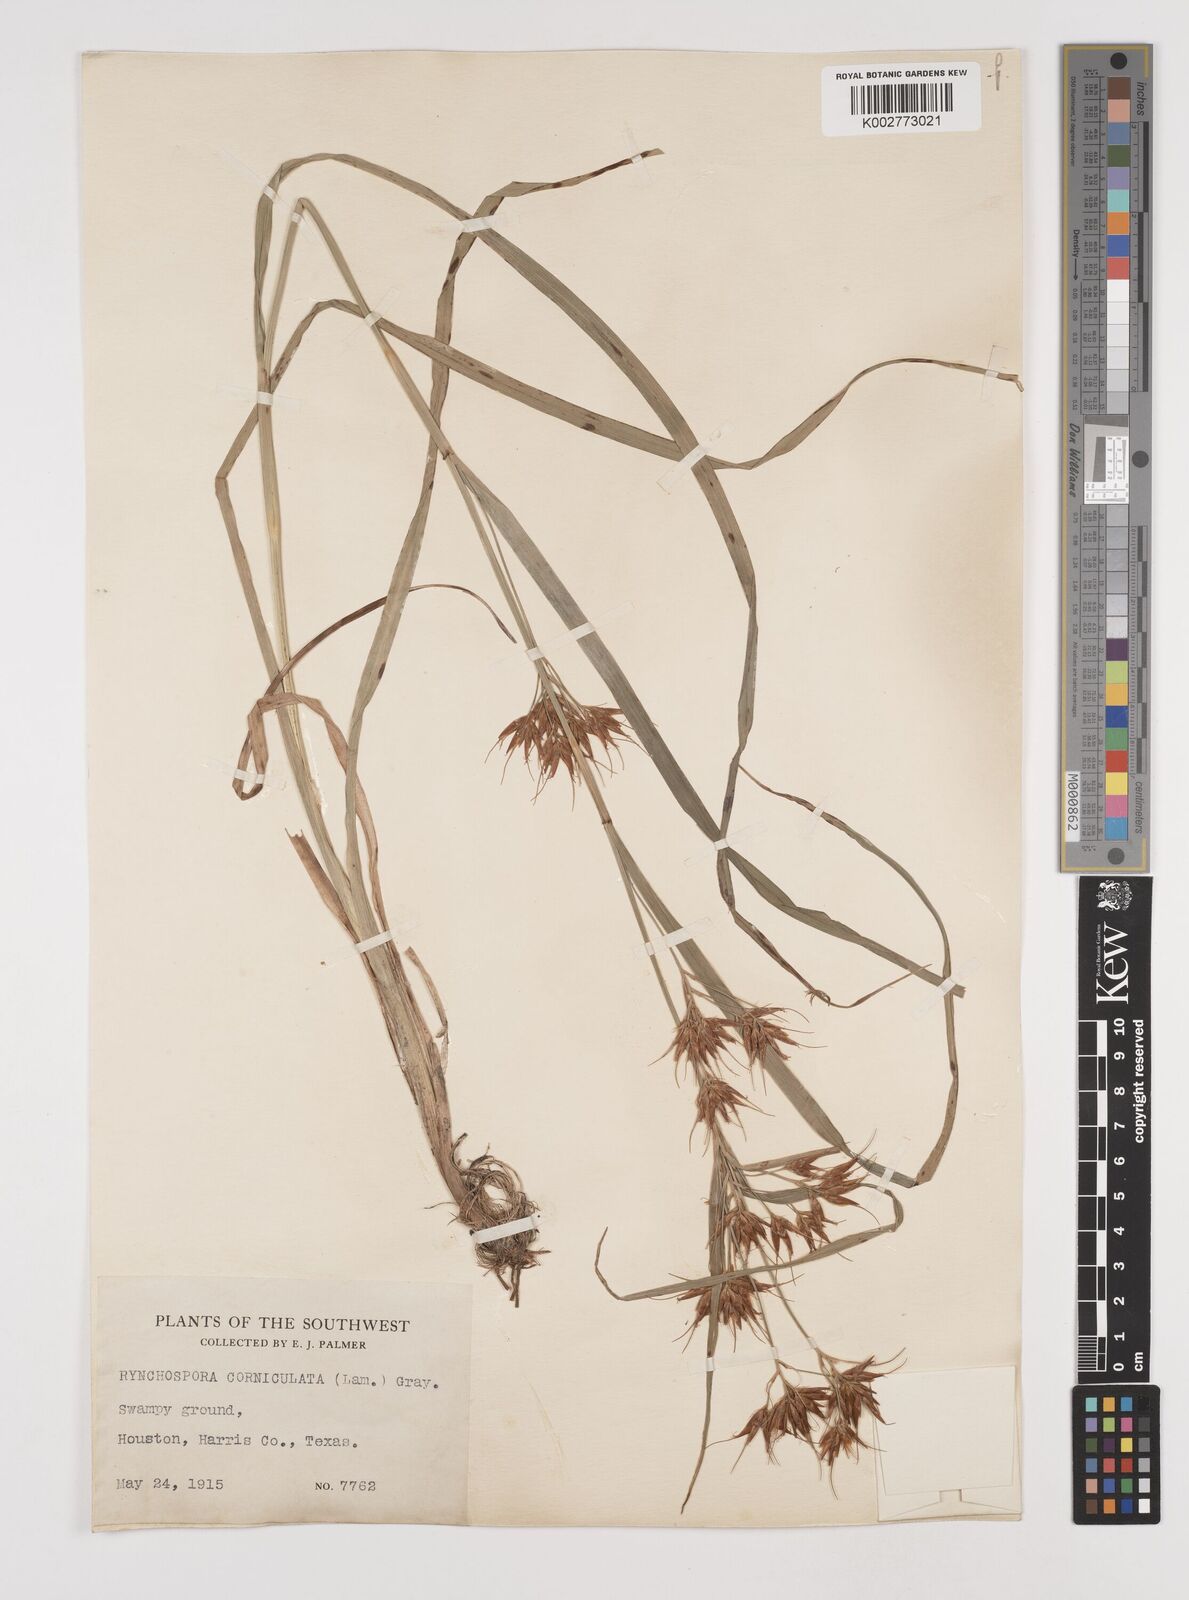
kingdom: Plantae
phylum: Tracheophyta
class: Liliopsida
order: Poales
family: Cyperaceae
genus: Rhynchospora
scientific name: Rhynchospora corniculata
